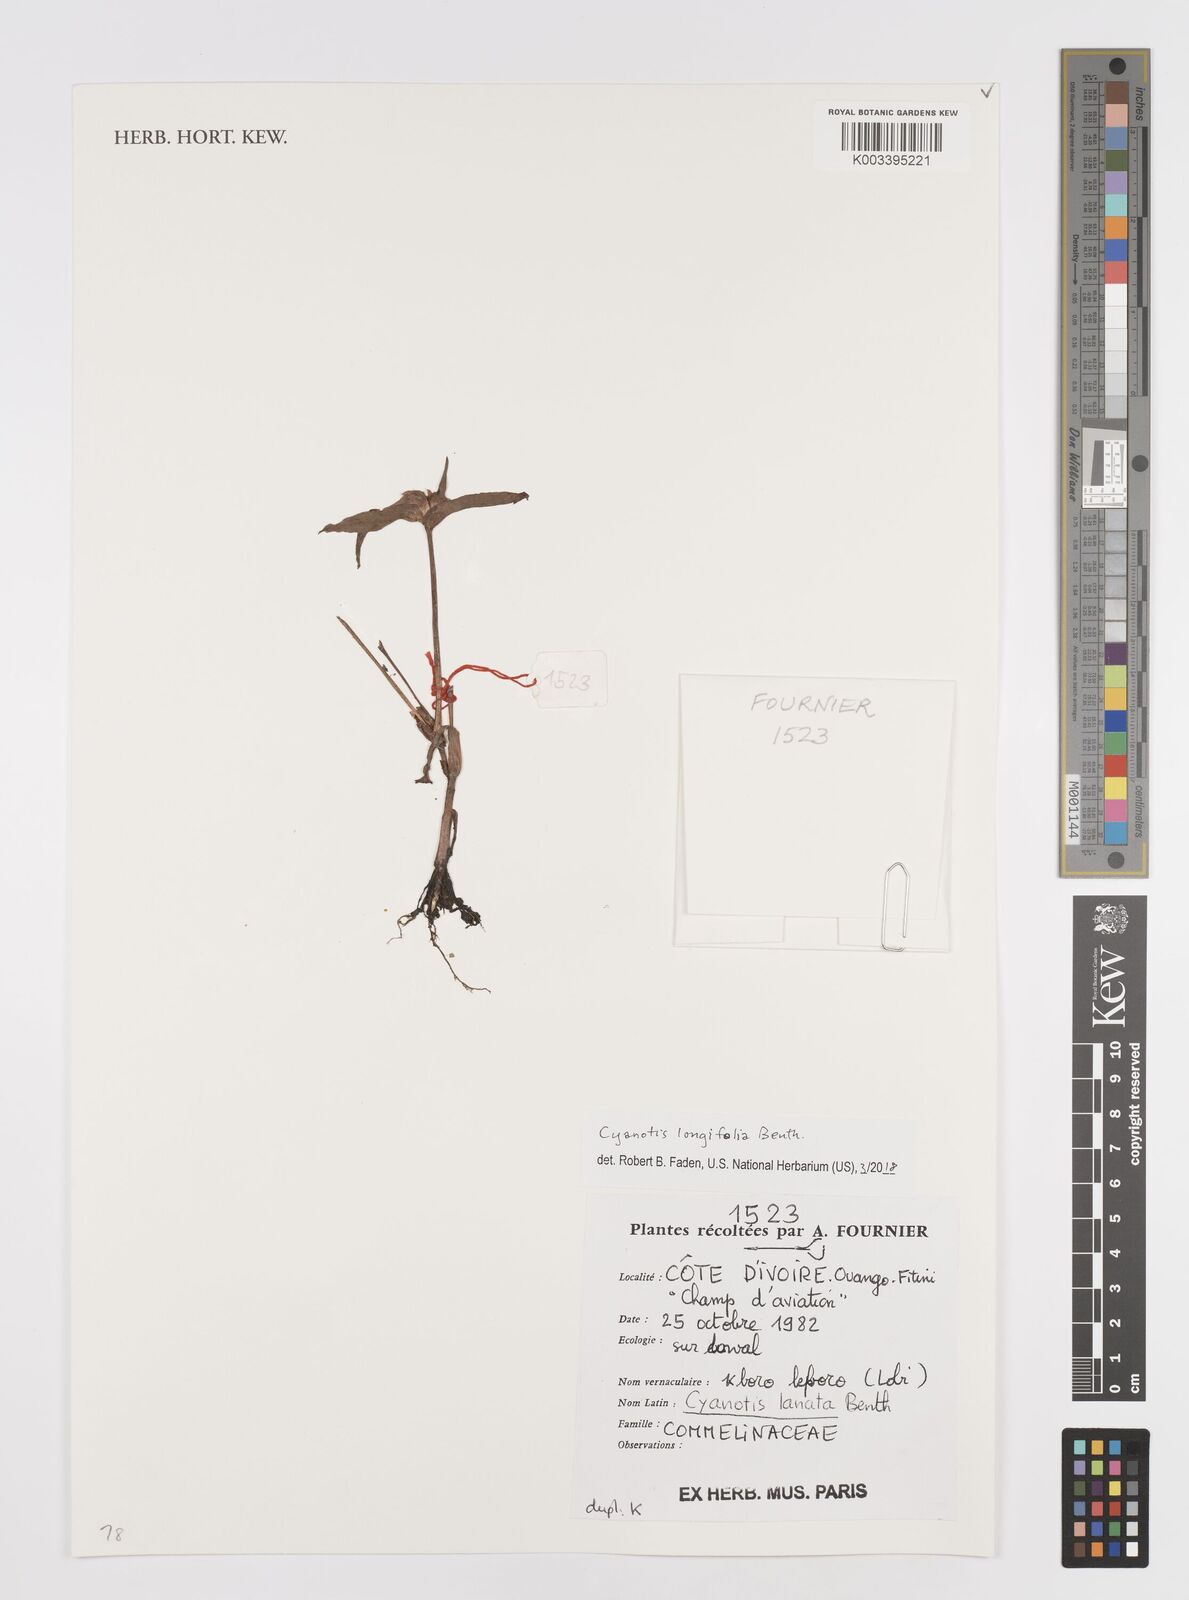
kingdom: Plantae
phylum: Tracheophyta
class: Liliopsida
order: Commelinales
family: Commelinaceae
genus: Cyanotis
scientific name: Cyanotis longifolia
